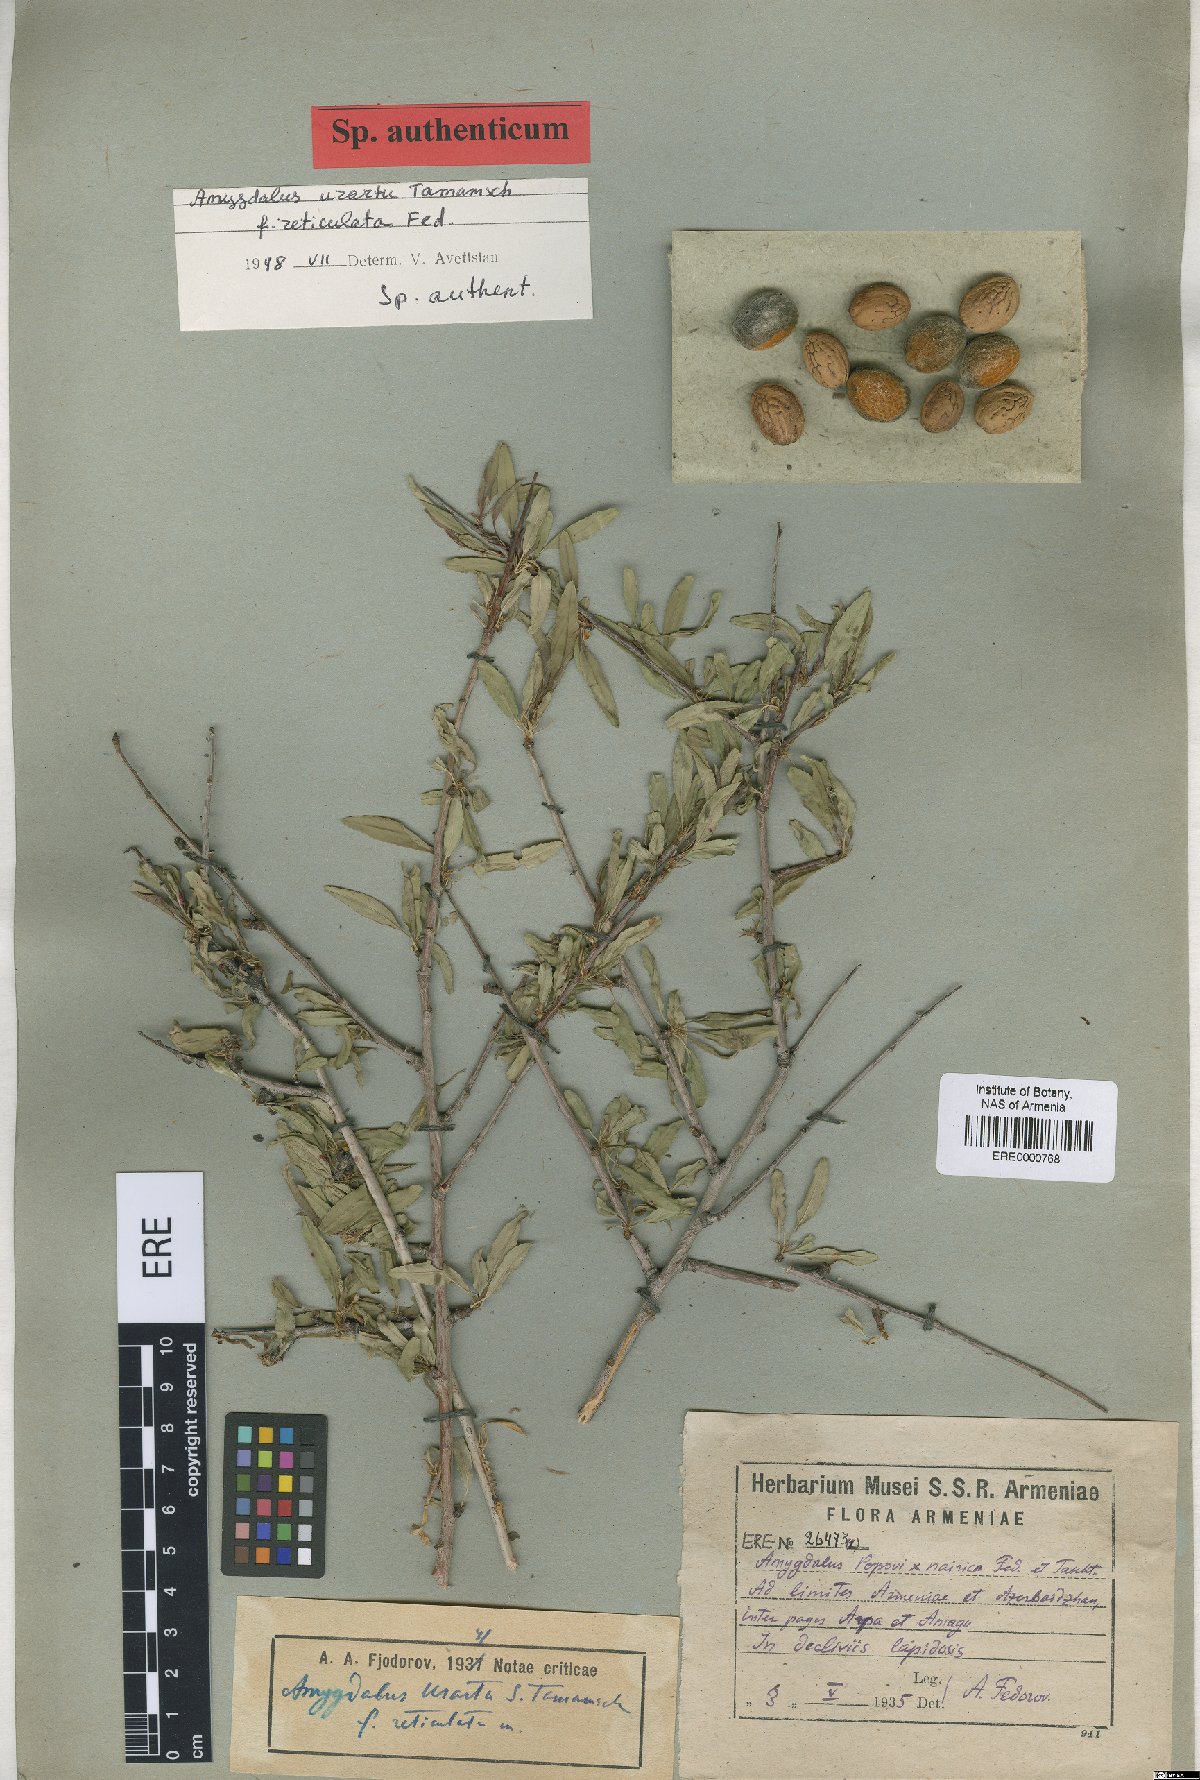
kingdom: Plantae
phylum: Tracheophyta
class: Magnoliopsida
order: Rosales
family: Rosaceae
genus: Prunus
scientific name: Prunus urartu
